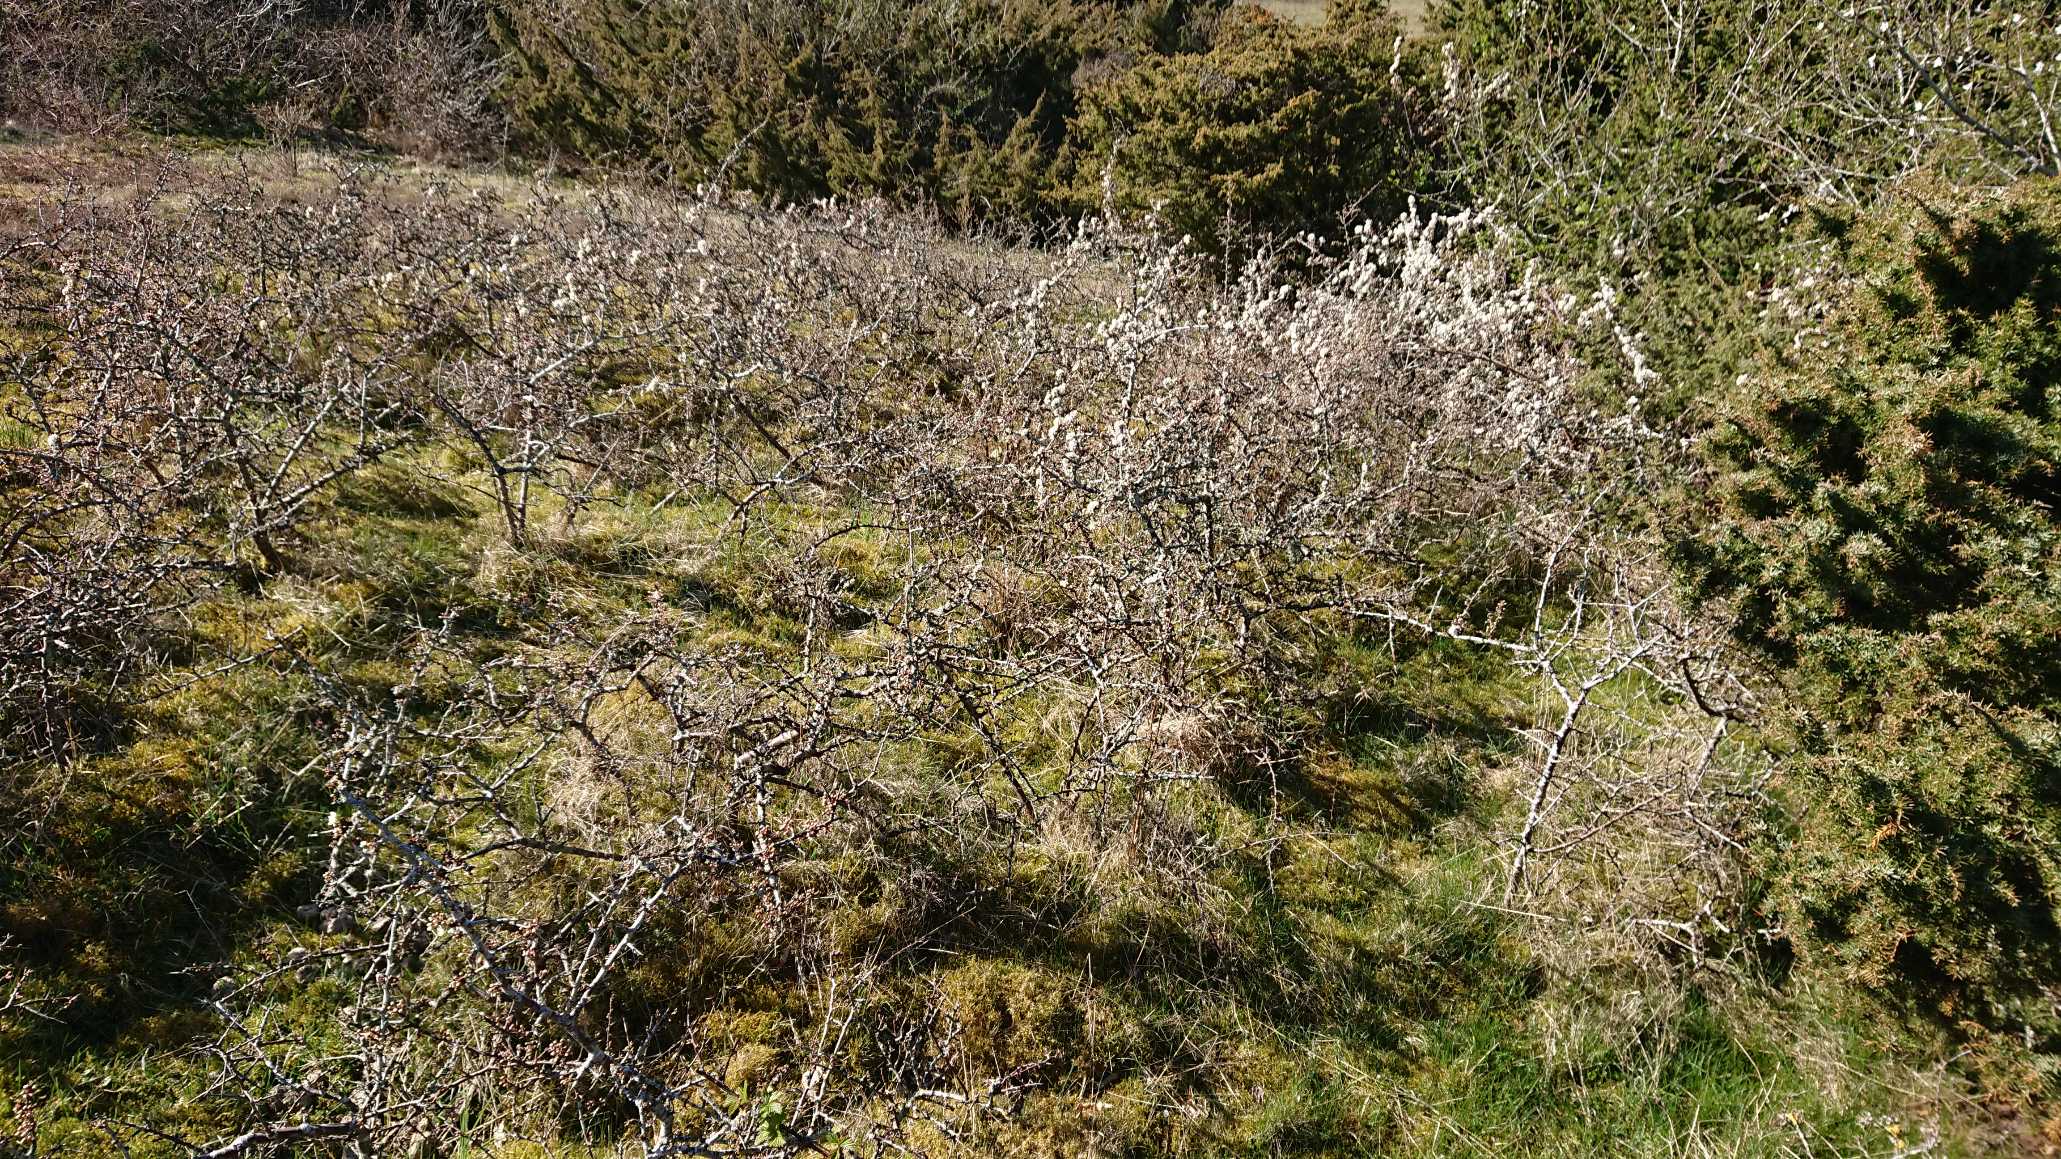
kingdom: Plantae
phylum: Tracheophyta
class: Magnoliopsida
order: Rosales
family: Rosaceae
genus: Prunus
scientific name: Prunus spinosa
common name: Slåen
